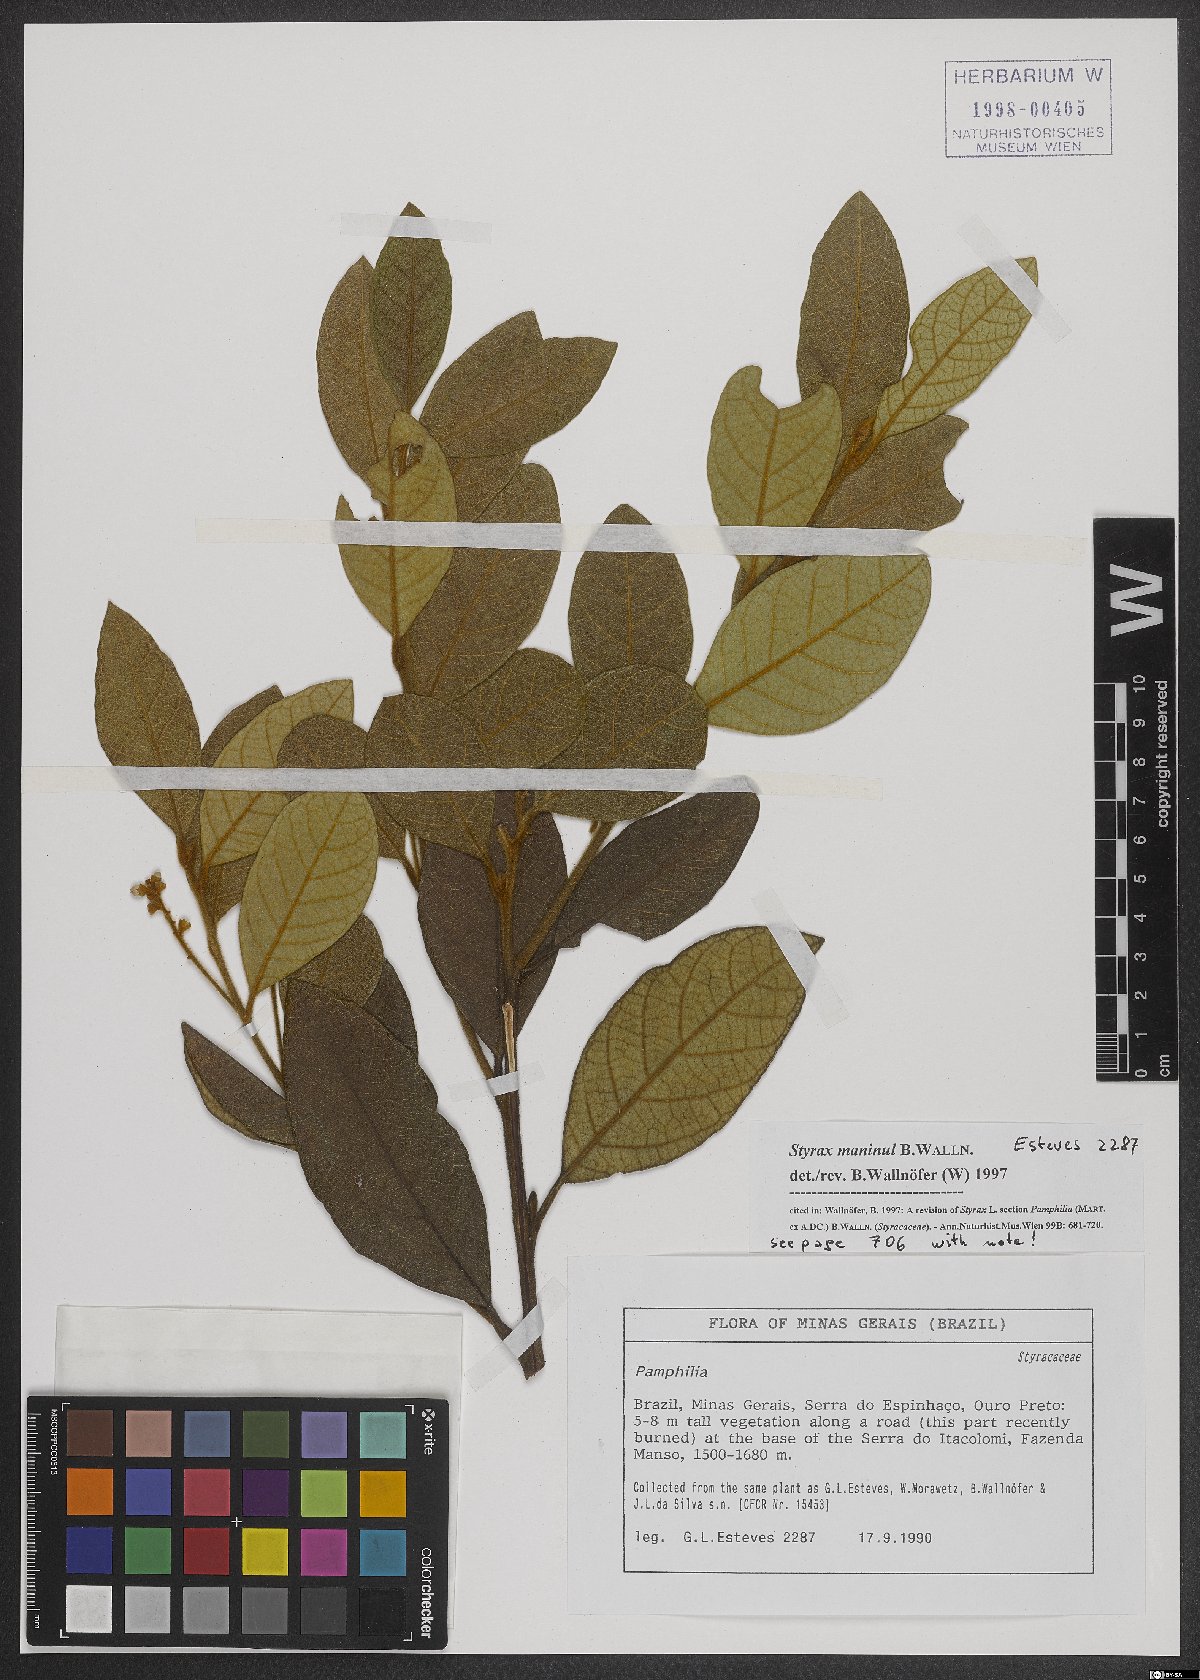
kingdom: Plantae
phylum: Tracheophyta
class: Magnoliopsida
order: Ericales
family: Styracaceae
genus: Styrax
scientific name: Styrax maninul
